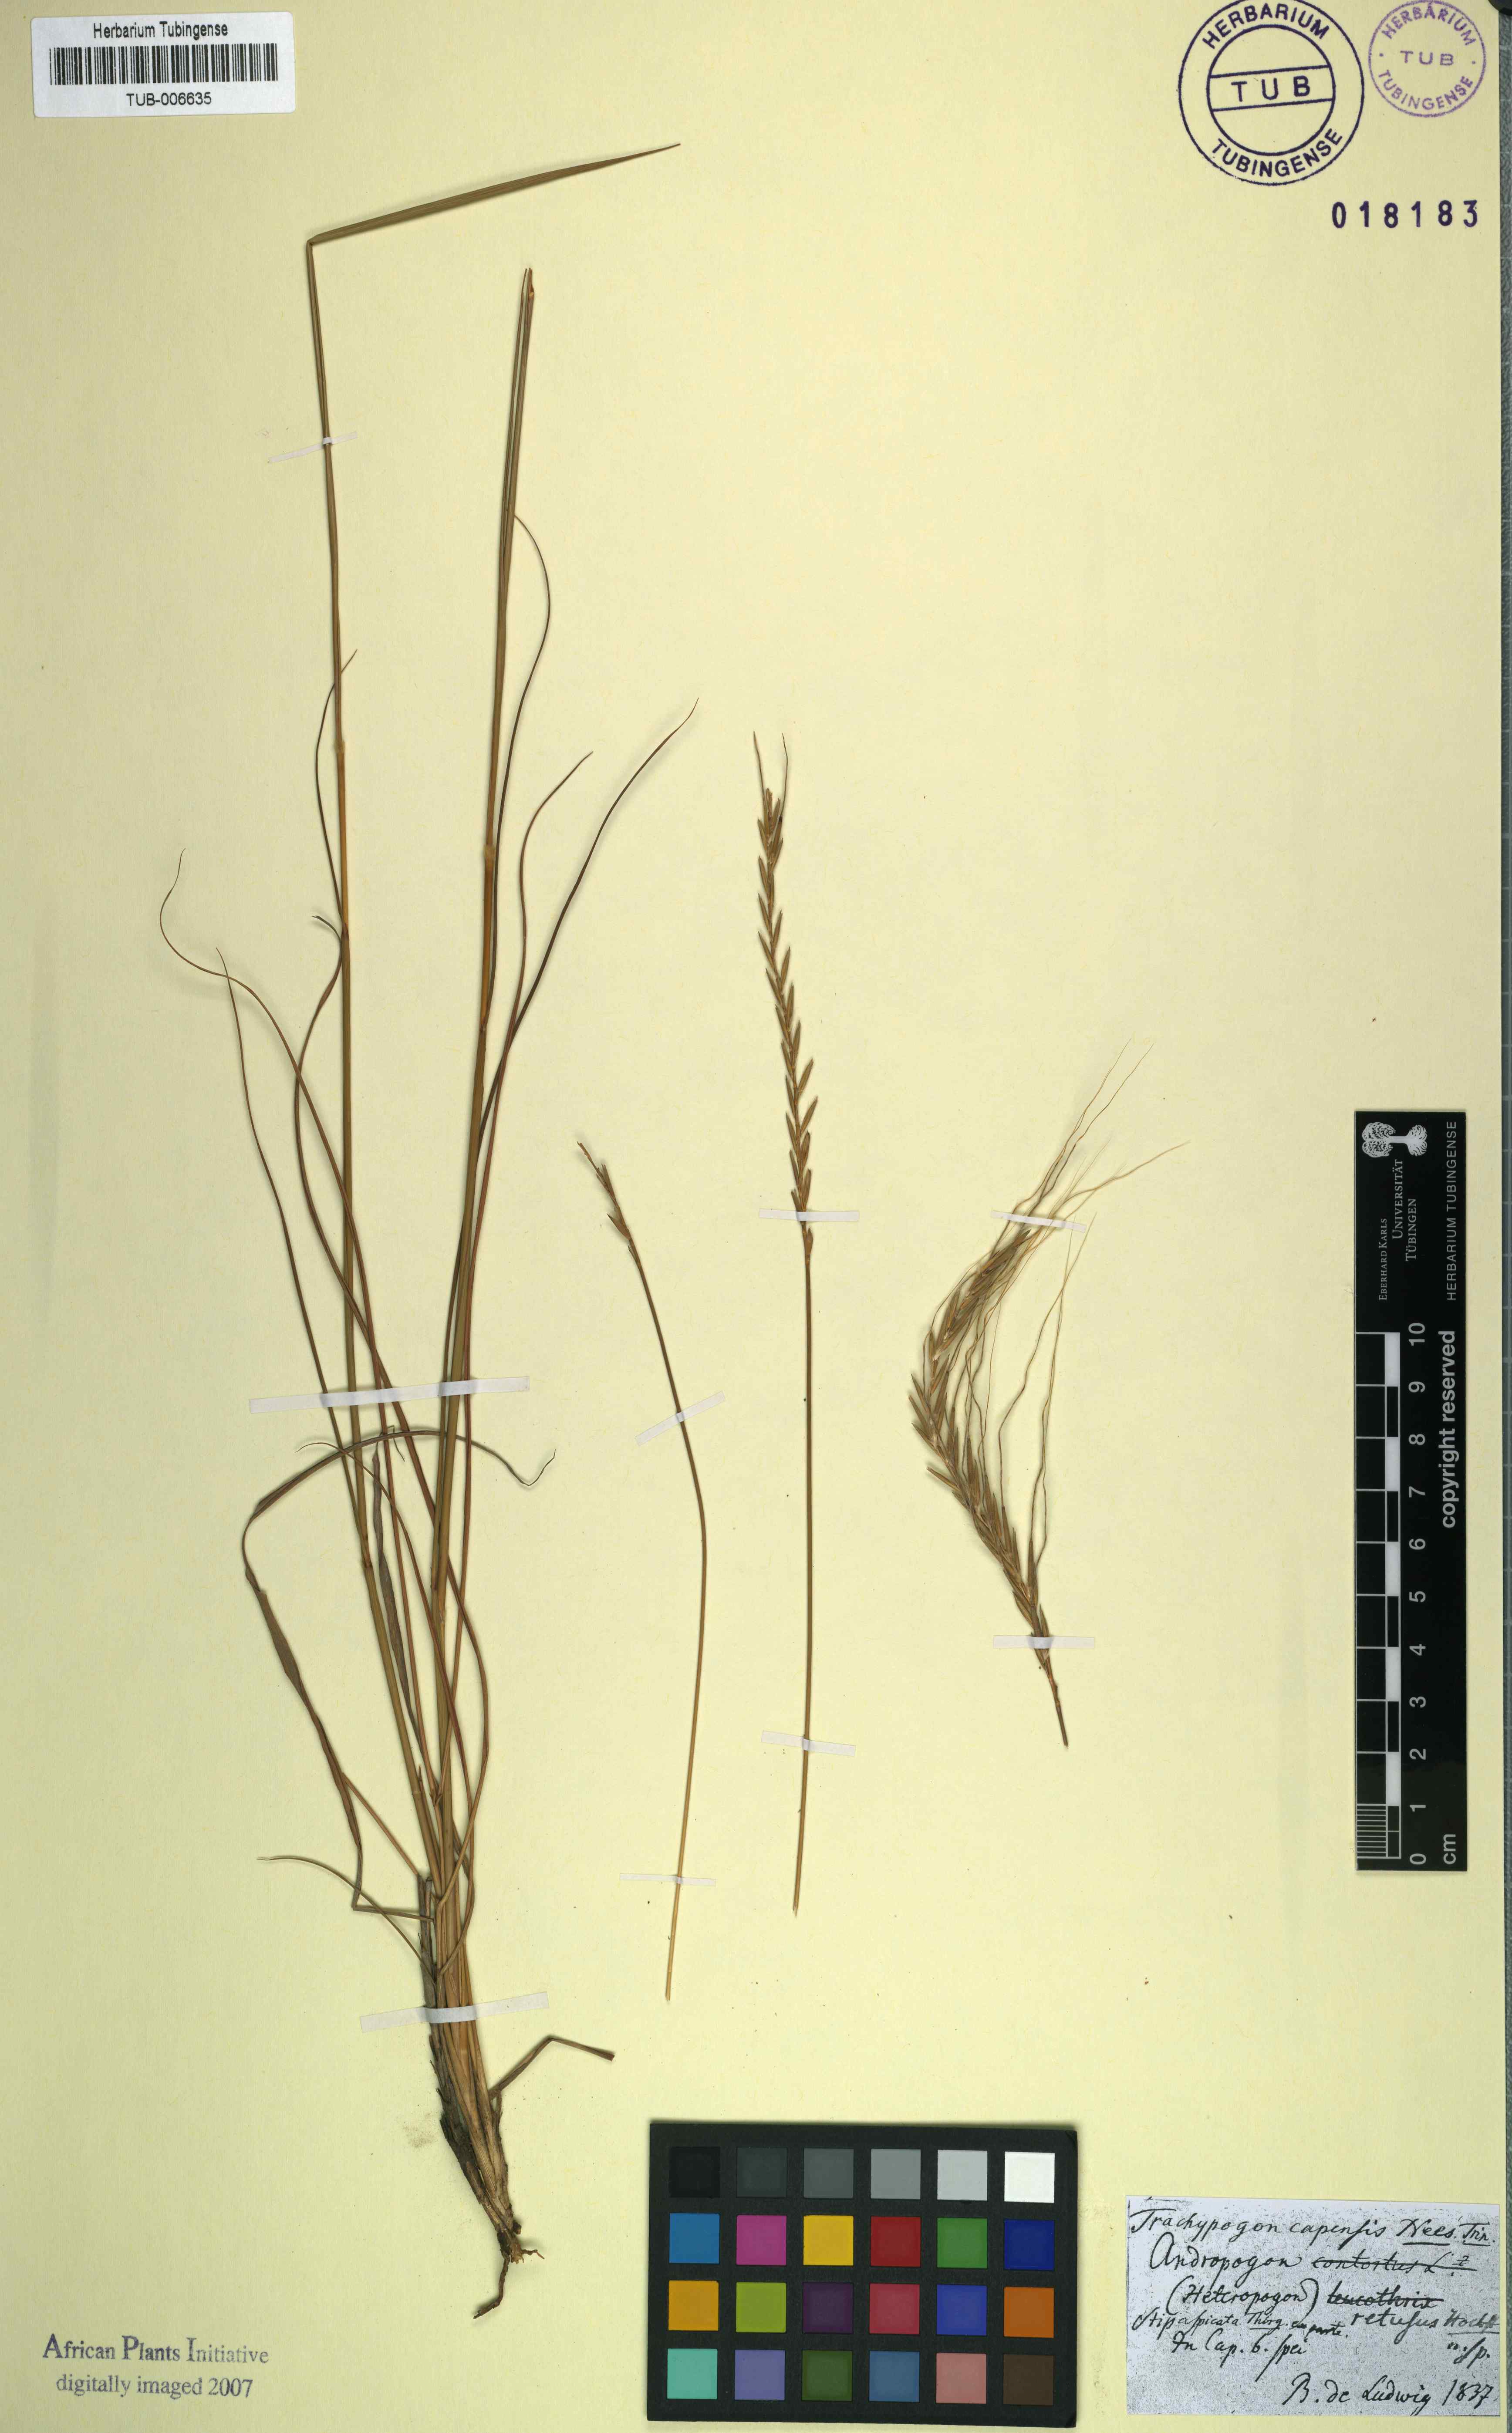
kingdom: Plantae
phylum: Tracheophyta
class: Liliopsida
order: Poales
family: Poaceae
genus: Trachypogon
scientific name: Trachypogon spicatus
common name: Crinkle-awn
